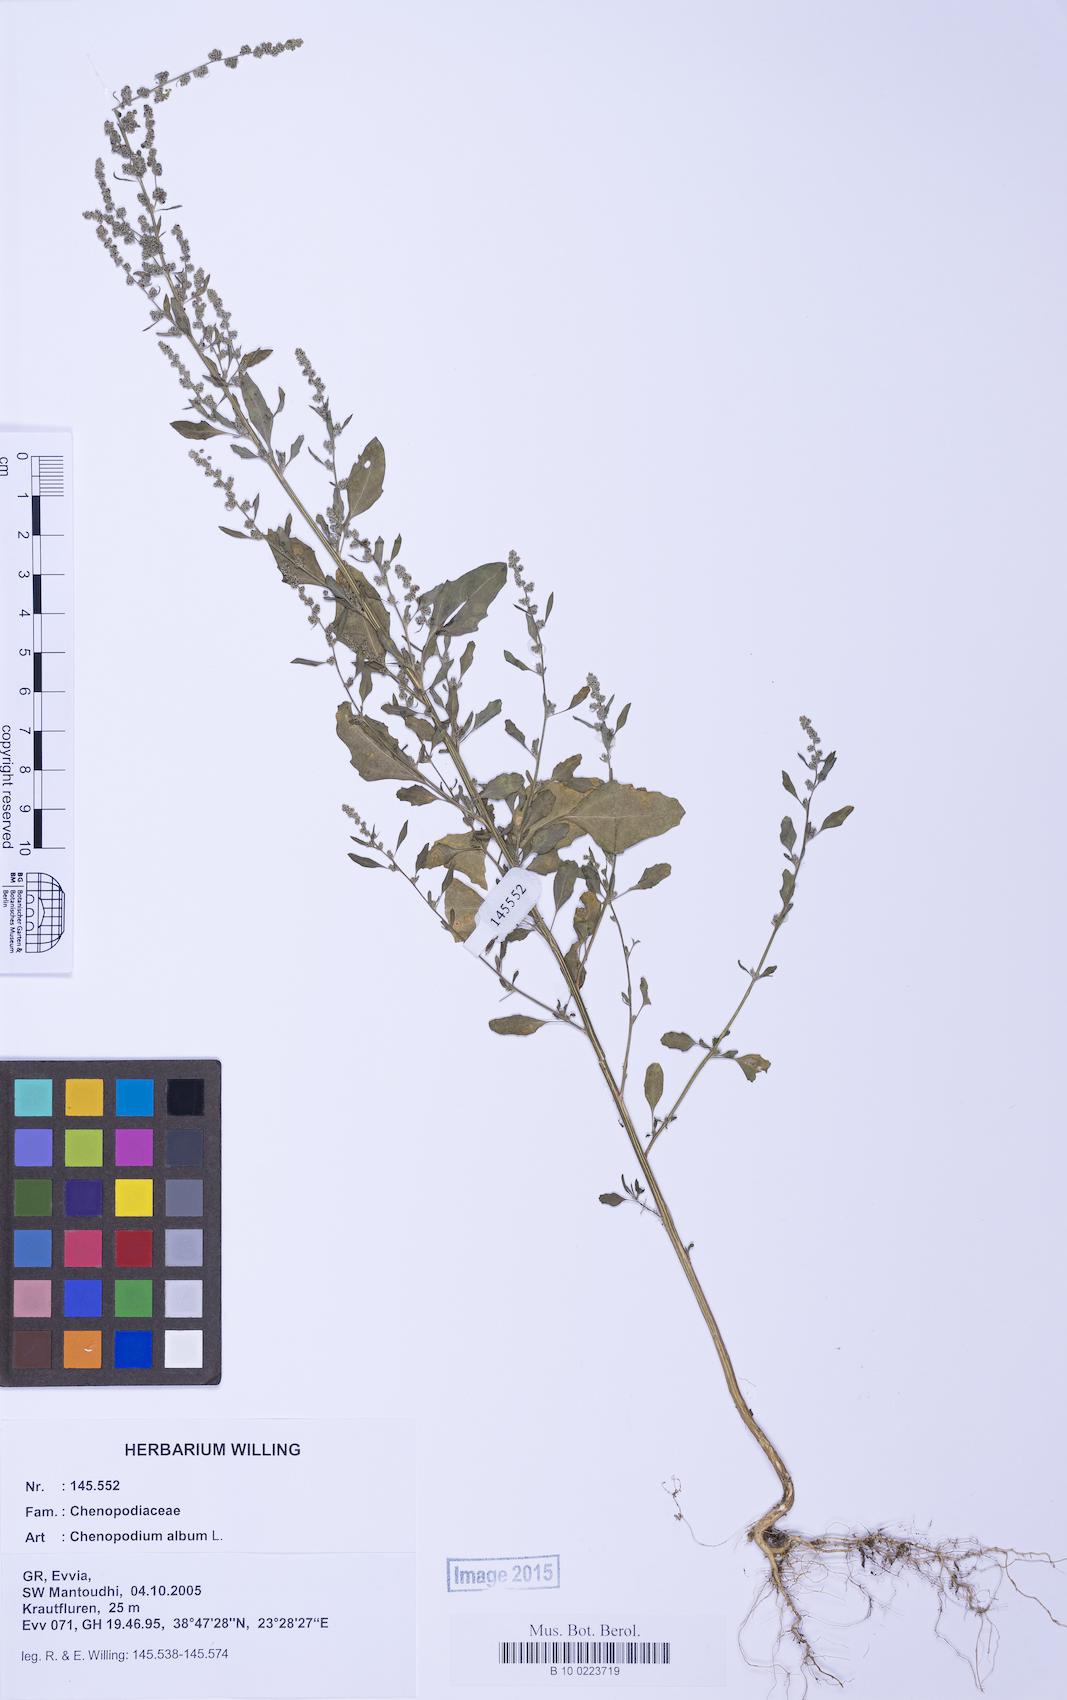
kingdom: Plantae
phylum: Tracheophyta
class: Magnoliopsida
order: Caryophyllales
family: Amaranthaceae
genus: Chenopodium
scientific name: Chenopodium album
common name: Fat-hen
